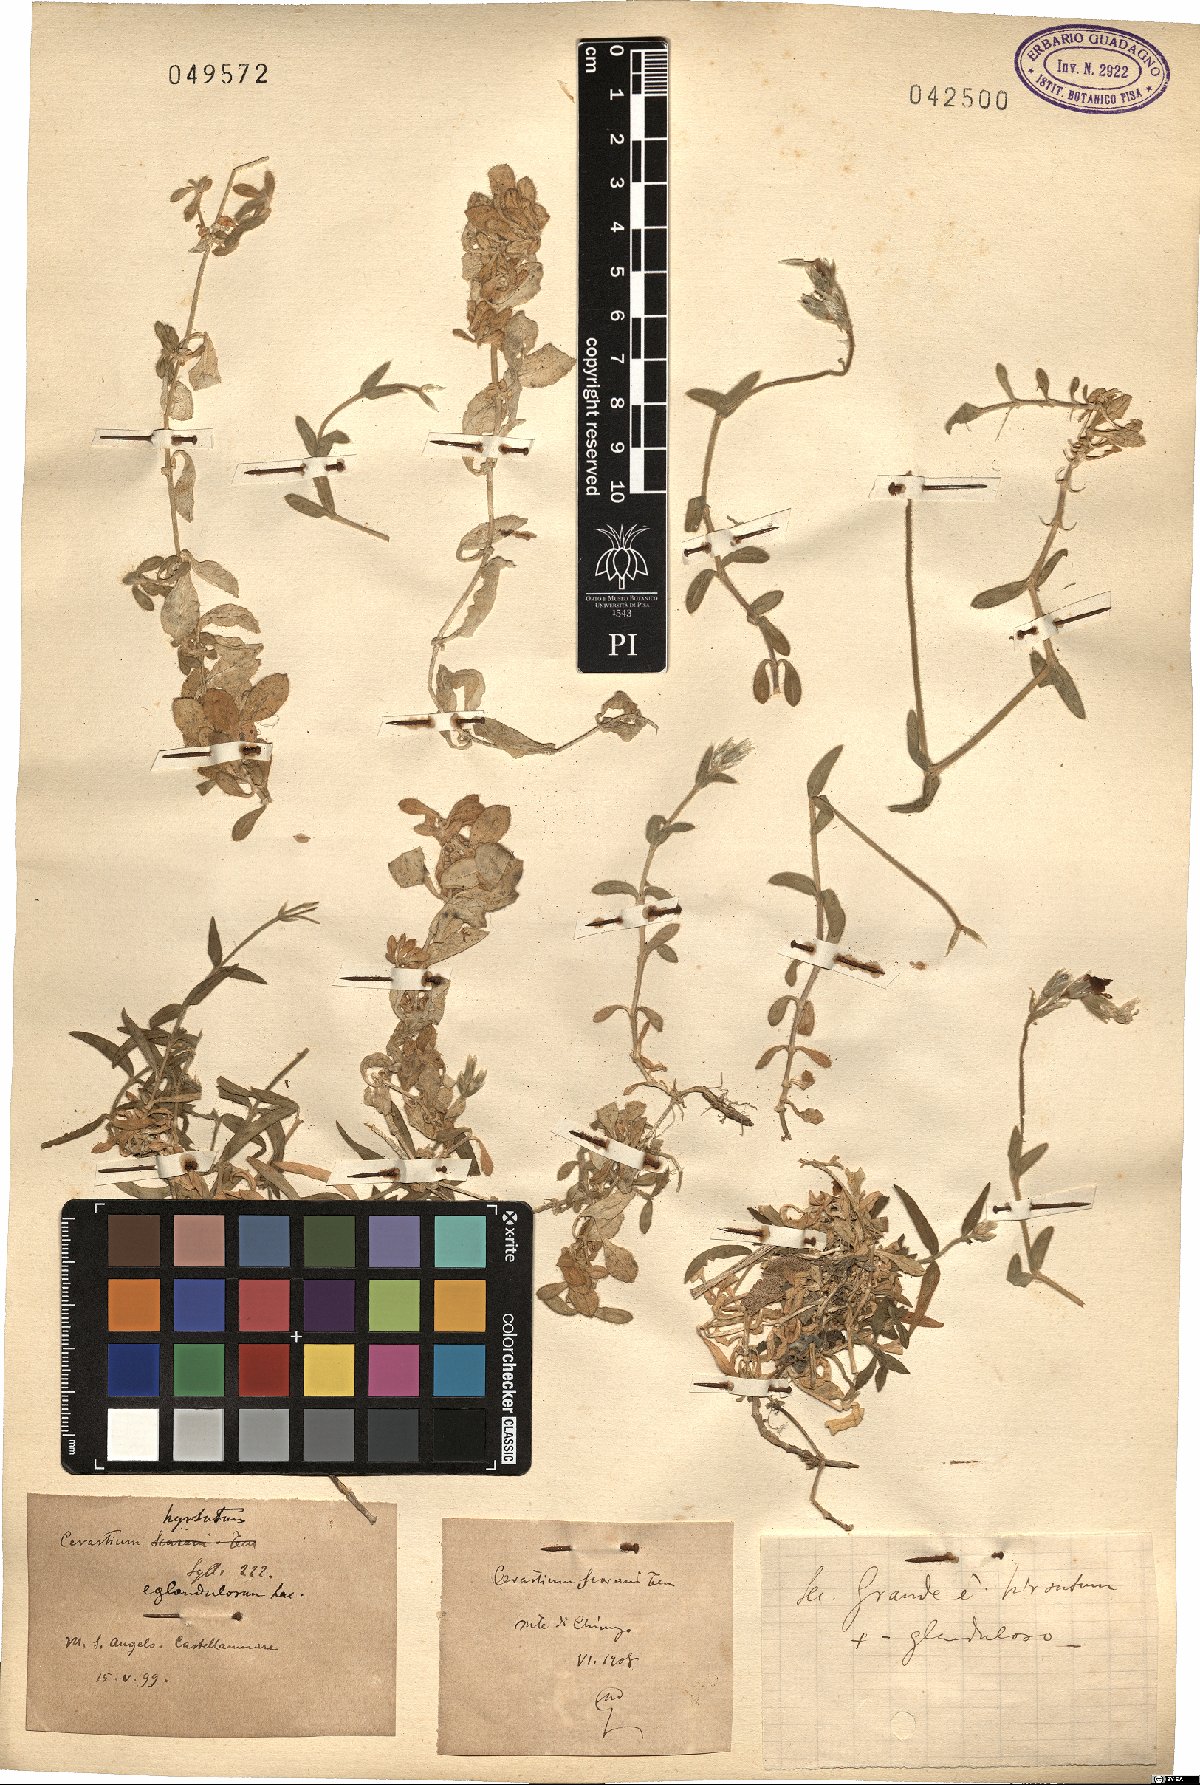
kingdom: Plantae
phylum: Tracheophyta
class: Magnoliopsida
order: Caryophyllales
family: Caryophyllaceae
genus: Cerastium
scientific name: Cerastium
